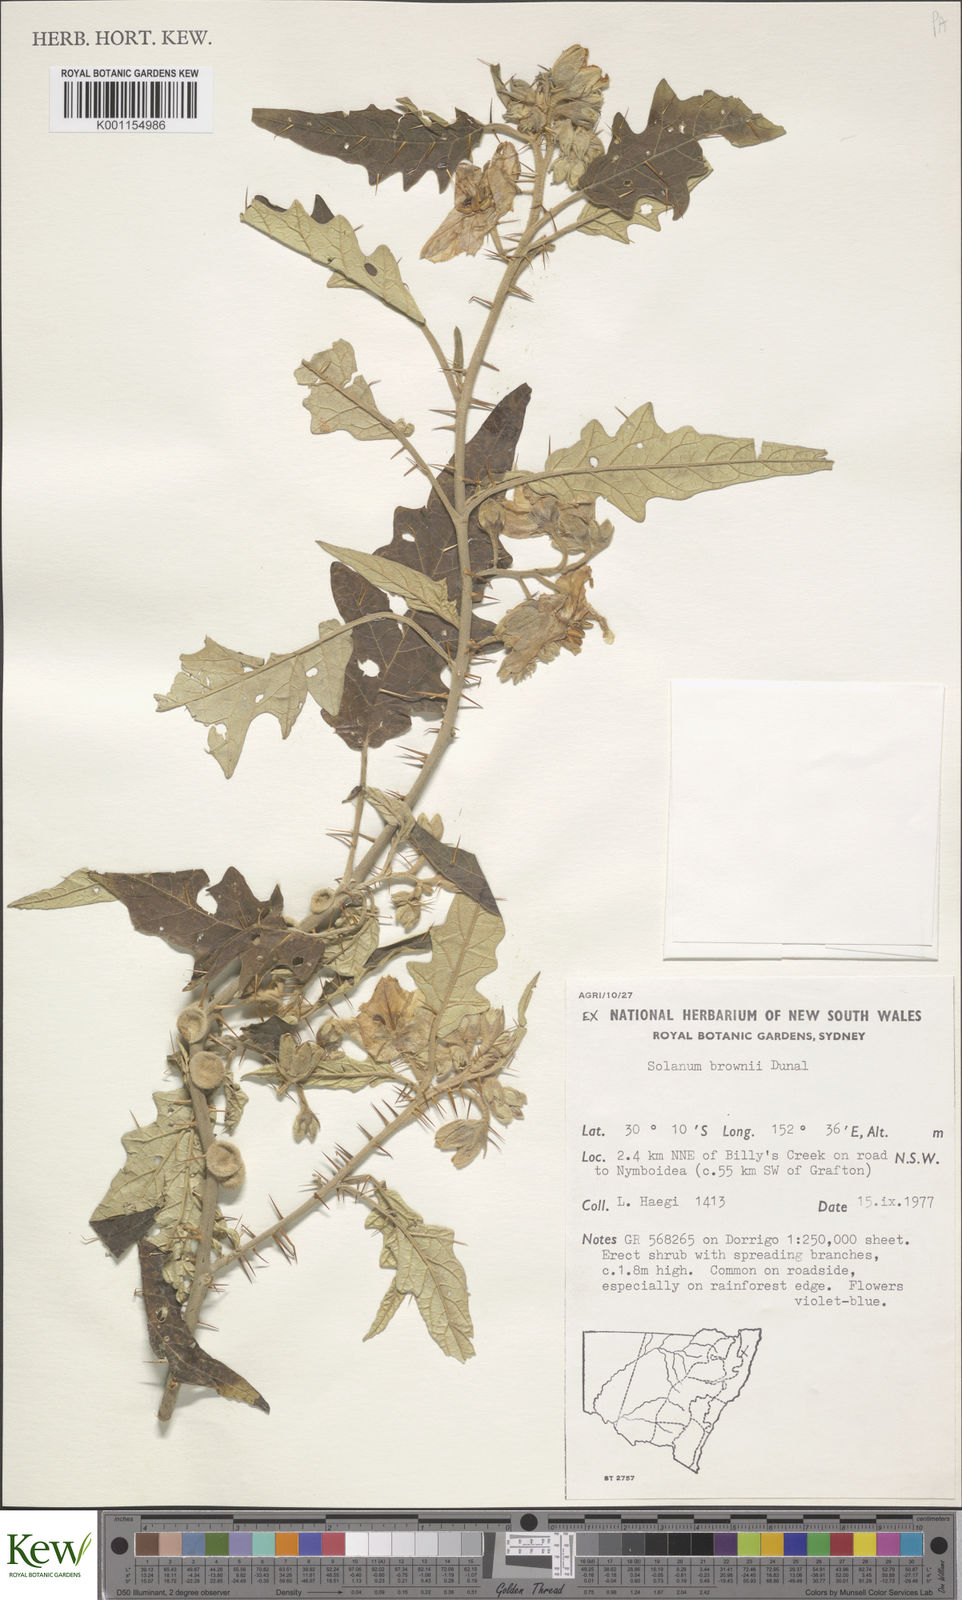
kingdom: Plantae
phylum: Tracheophyta
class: Magnoliopsida
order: Solanales
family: Solanaceae
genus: Solanum
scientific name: Solanum brownii
